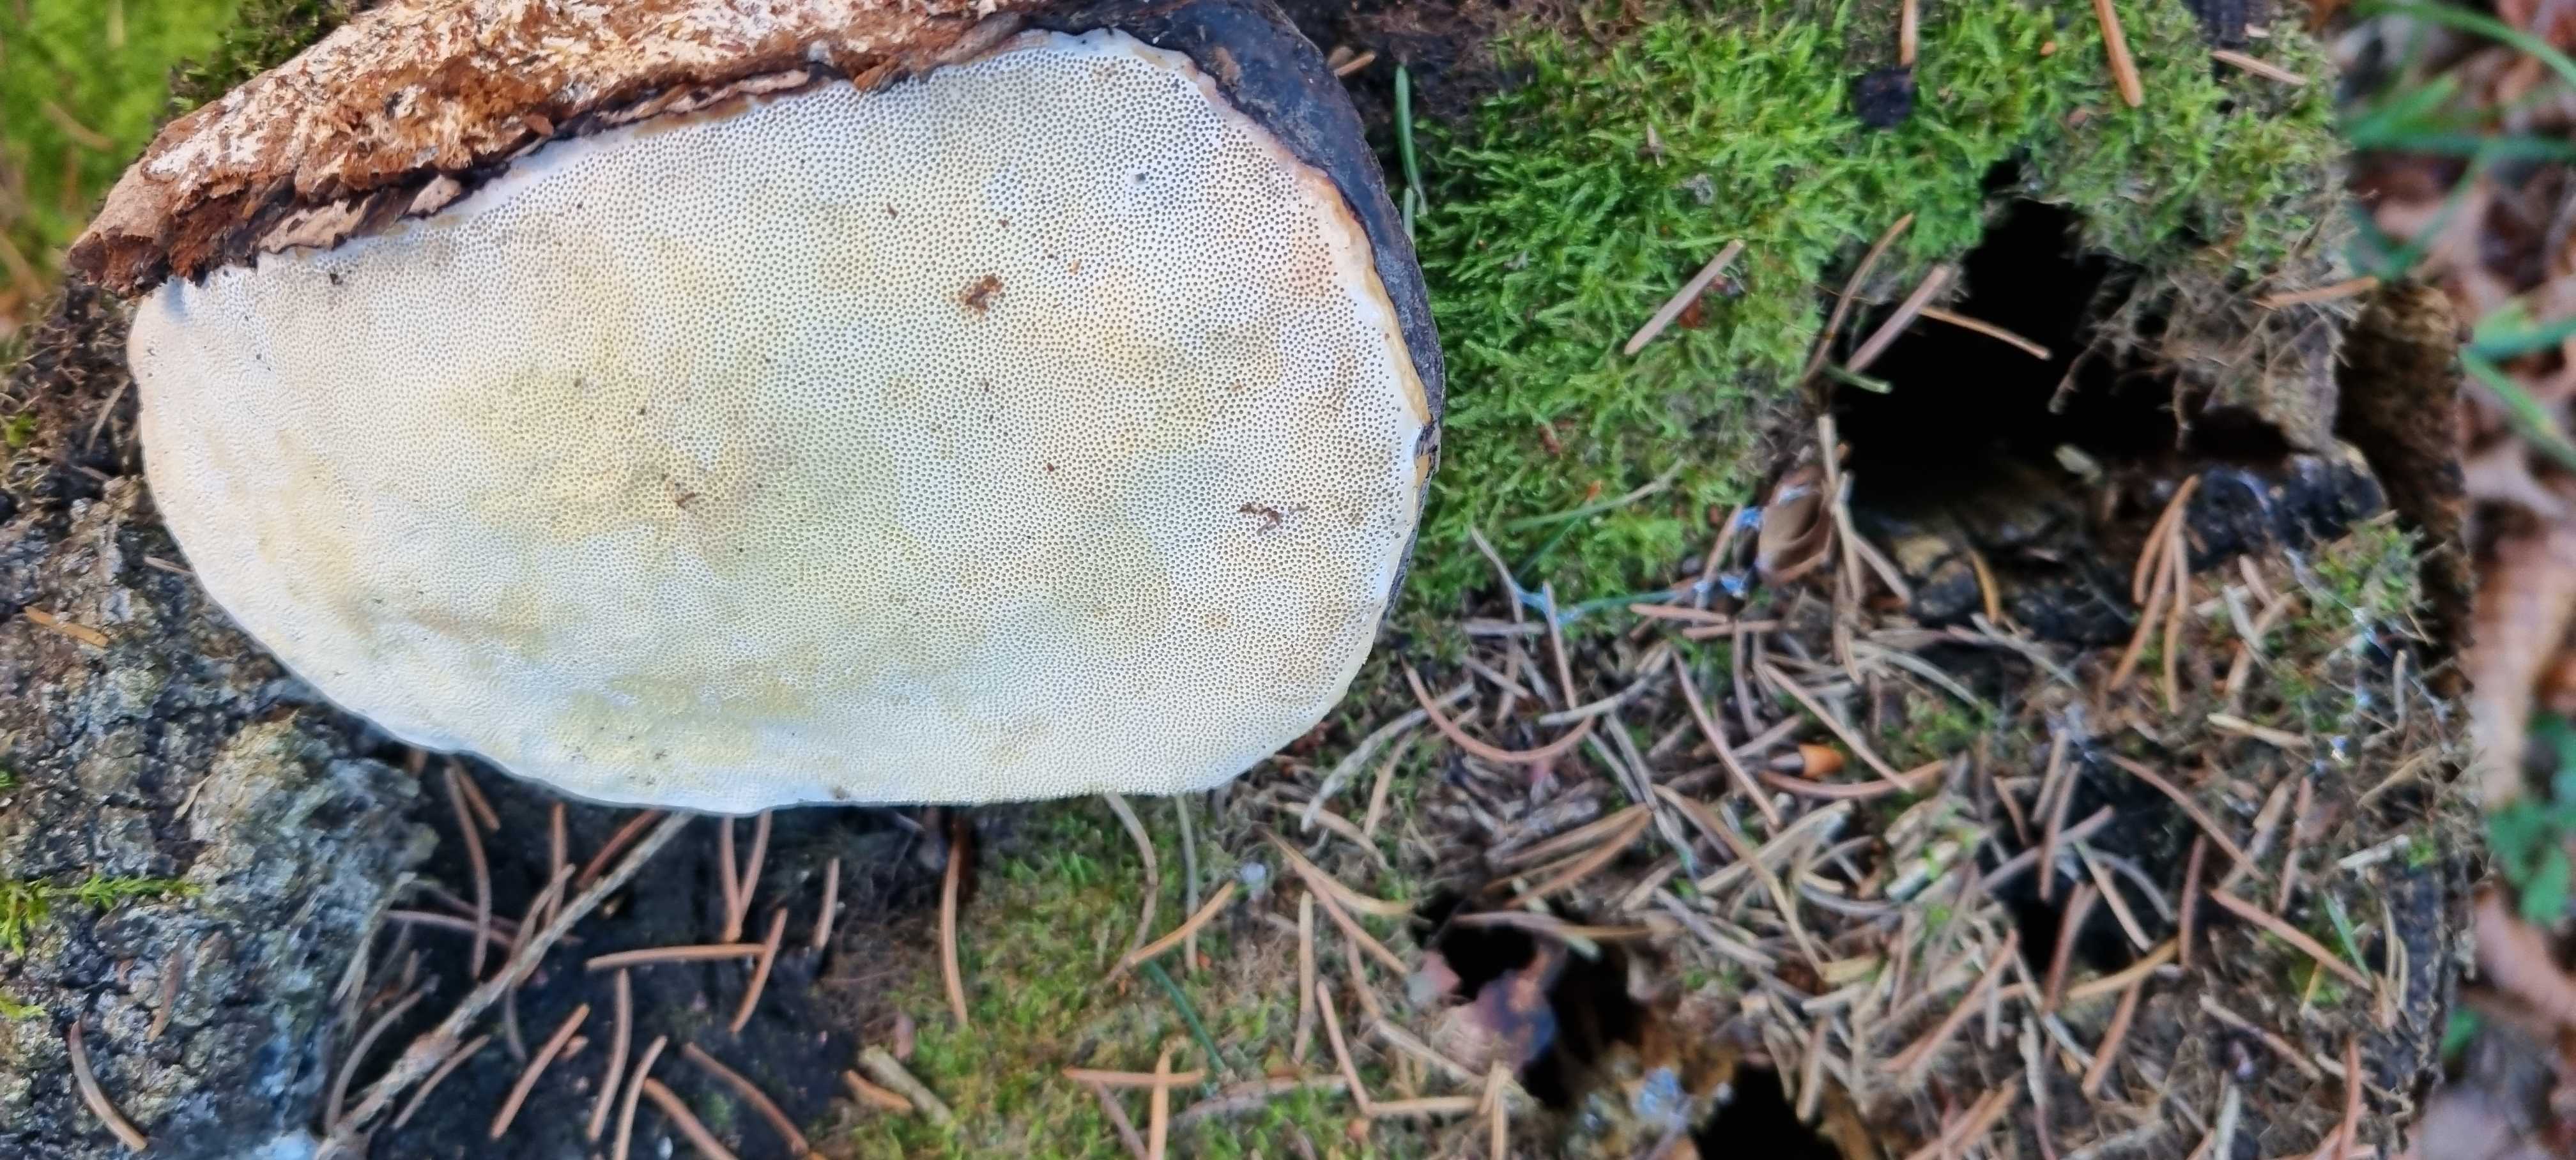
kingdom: Fungi
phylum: Basidiomycota
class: Agaricomycetes
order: Polyporales
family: Fomitopsidaceae
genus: Fomitopsis
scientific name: Fomitopsis pinicola
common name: randbæltet hovporesvamp
